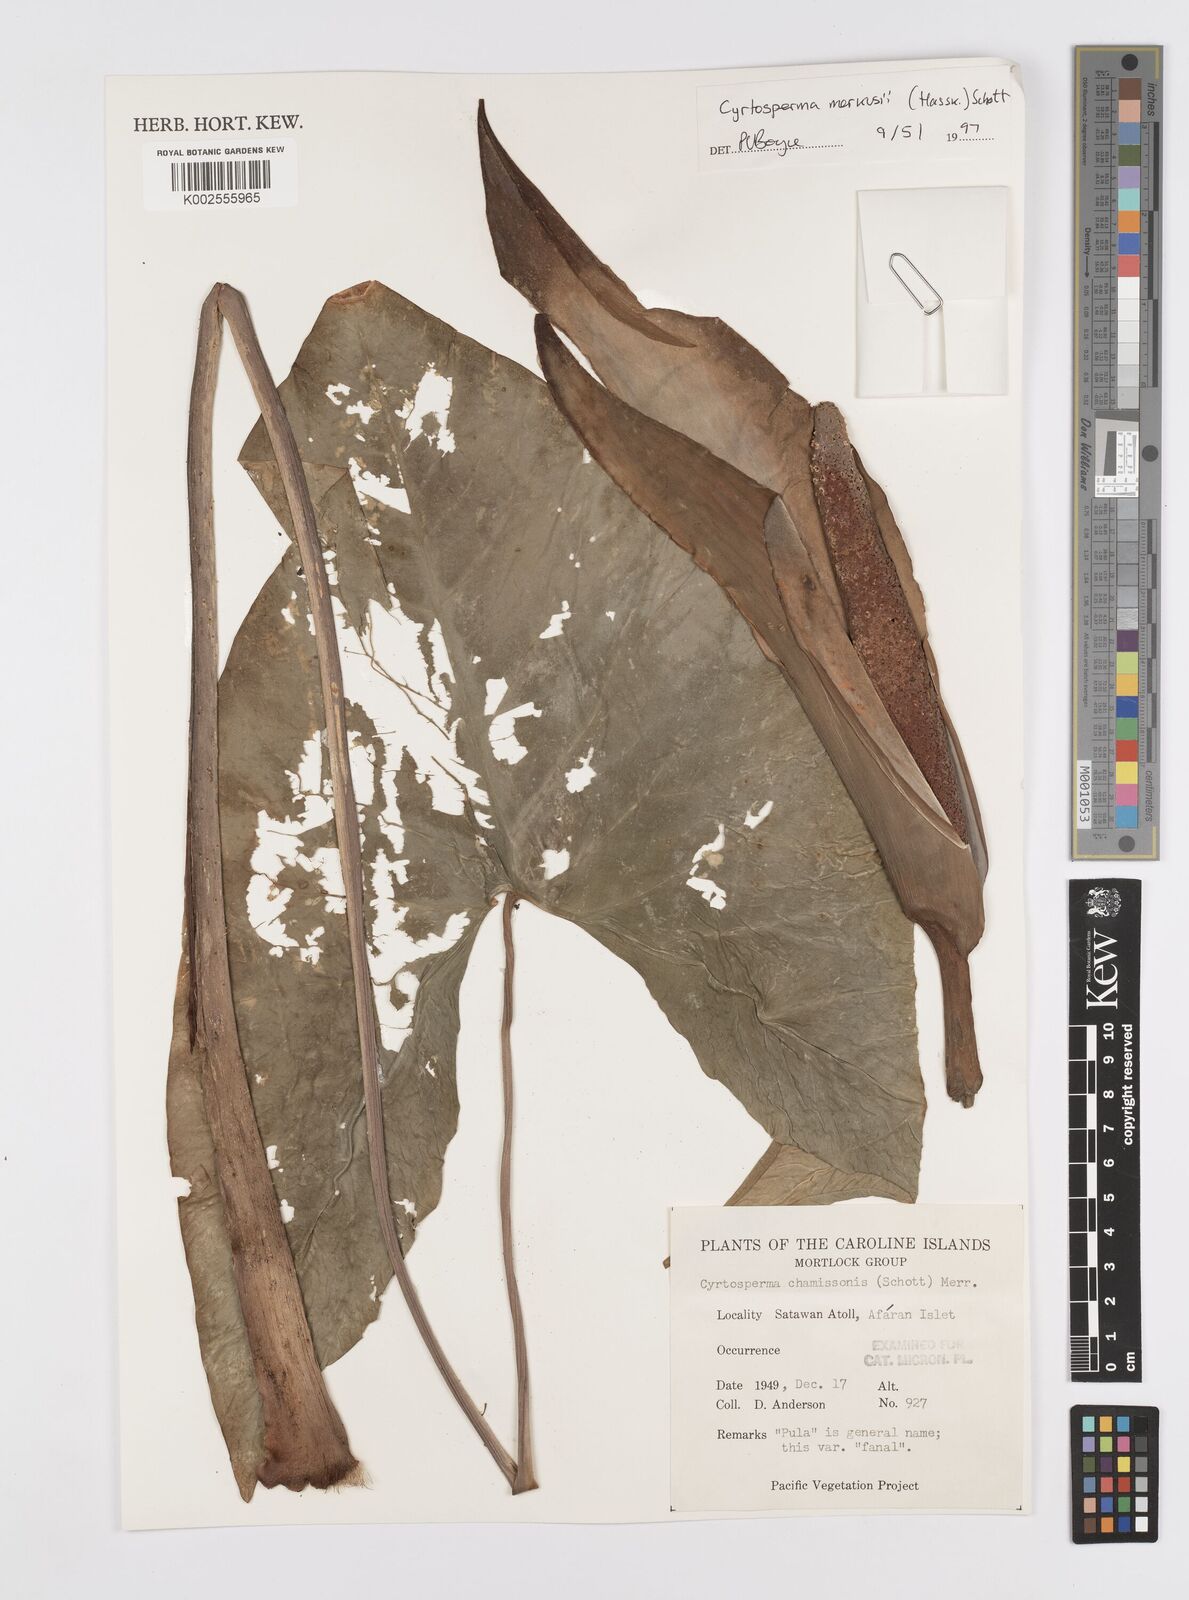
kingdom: Plantae
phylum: Tracheophyta
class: Liliopsida
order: Alismatales
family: Araceae
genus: Cyrtosperma
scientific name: Cyrtosperma merkusii
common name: Giant swamp-taro
